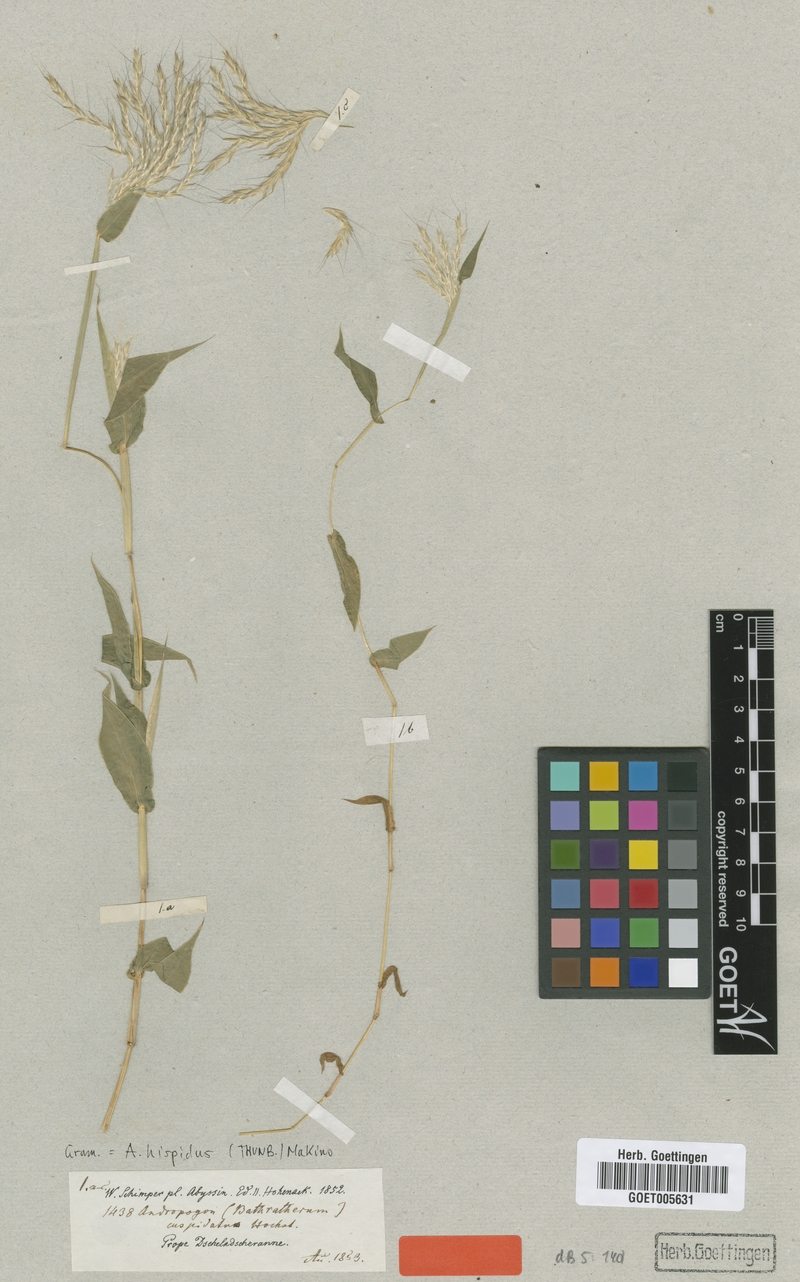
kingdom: Plantae
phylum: Tracheophyta
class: Liliopsida
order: Poales
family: Poaceae
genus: Arthraxon
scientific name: Arthraxon hispidus
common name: Small carpgrass
